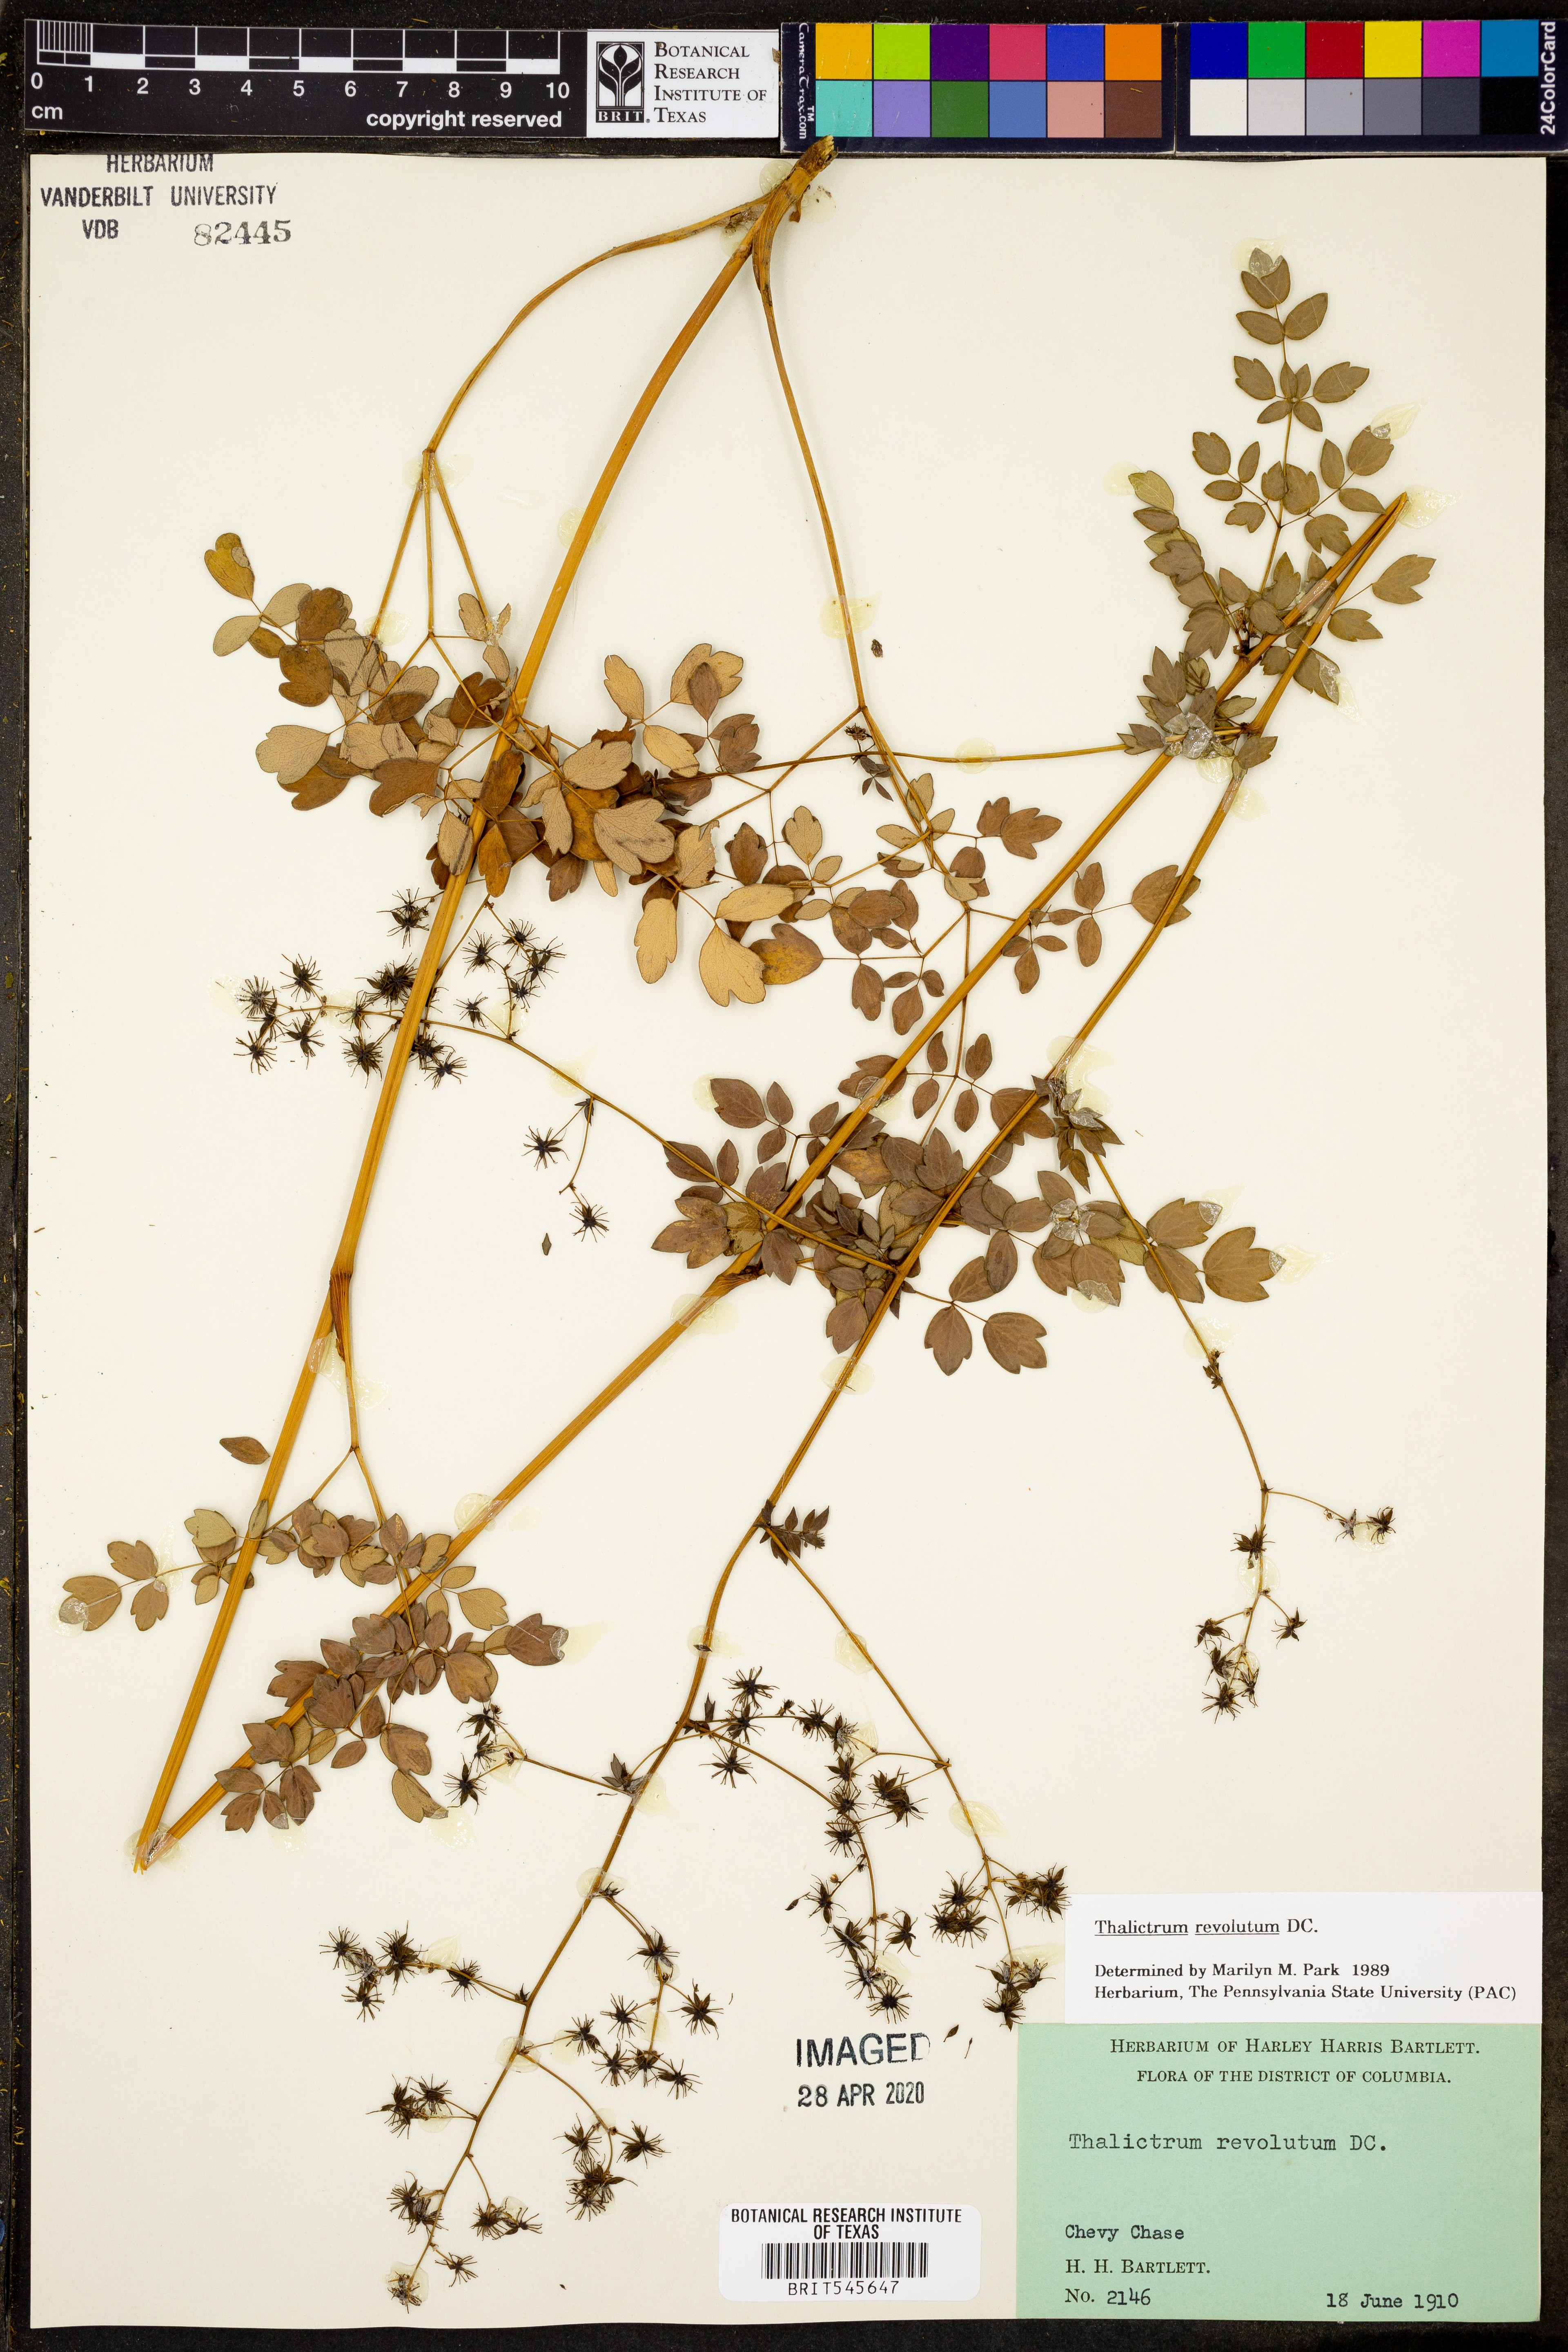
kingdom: Plantae
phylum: Tracheophyta
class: Magnoliopsida
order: Ranunculales
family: Ranunculaceae
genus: Thalictrum
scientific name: Thalictrum revolutum
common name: Waxy meadow-rue
